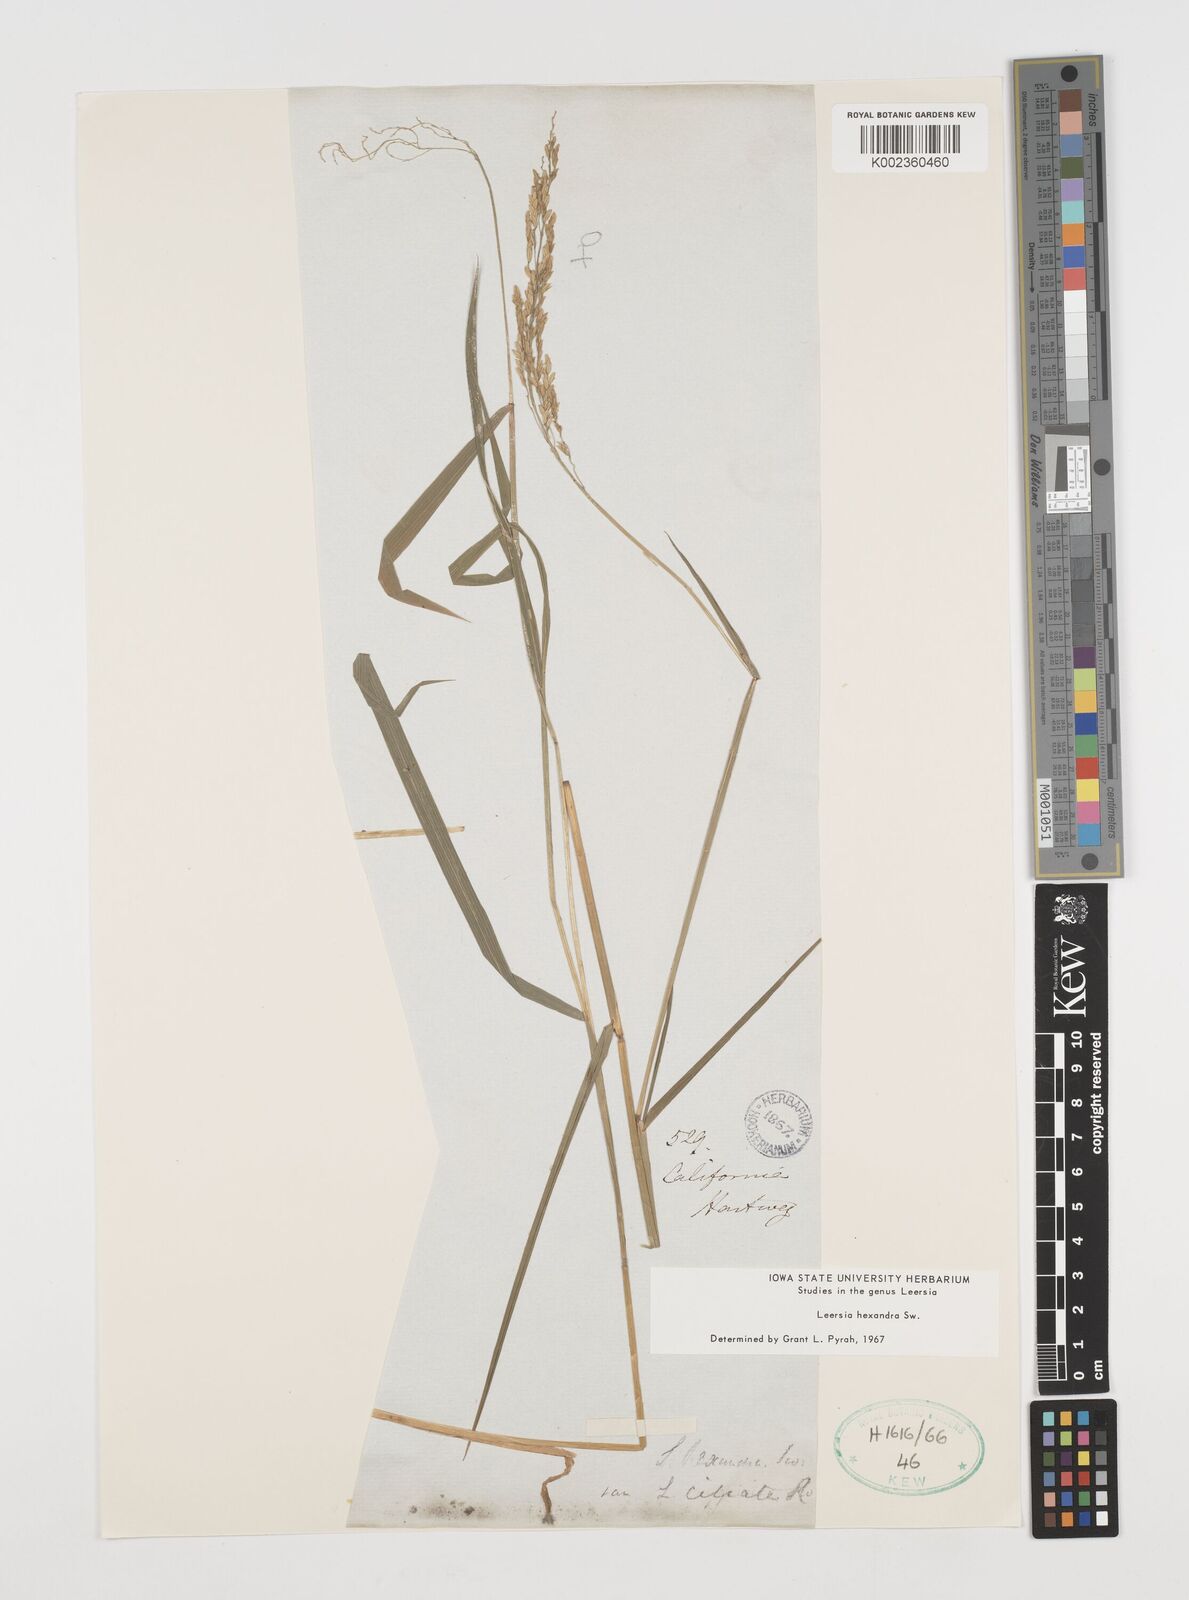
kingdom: Plantae
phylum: Tracheophyta
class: Liliopsida
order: Poales
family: Poaceae
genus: Leersia
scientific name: Leersia hexandra
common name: Southern cut grass
